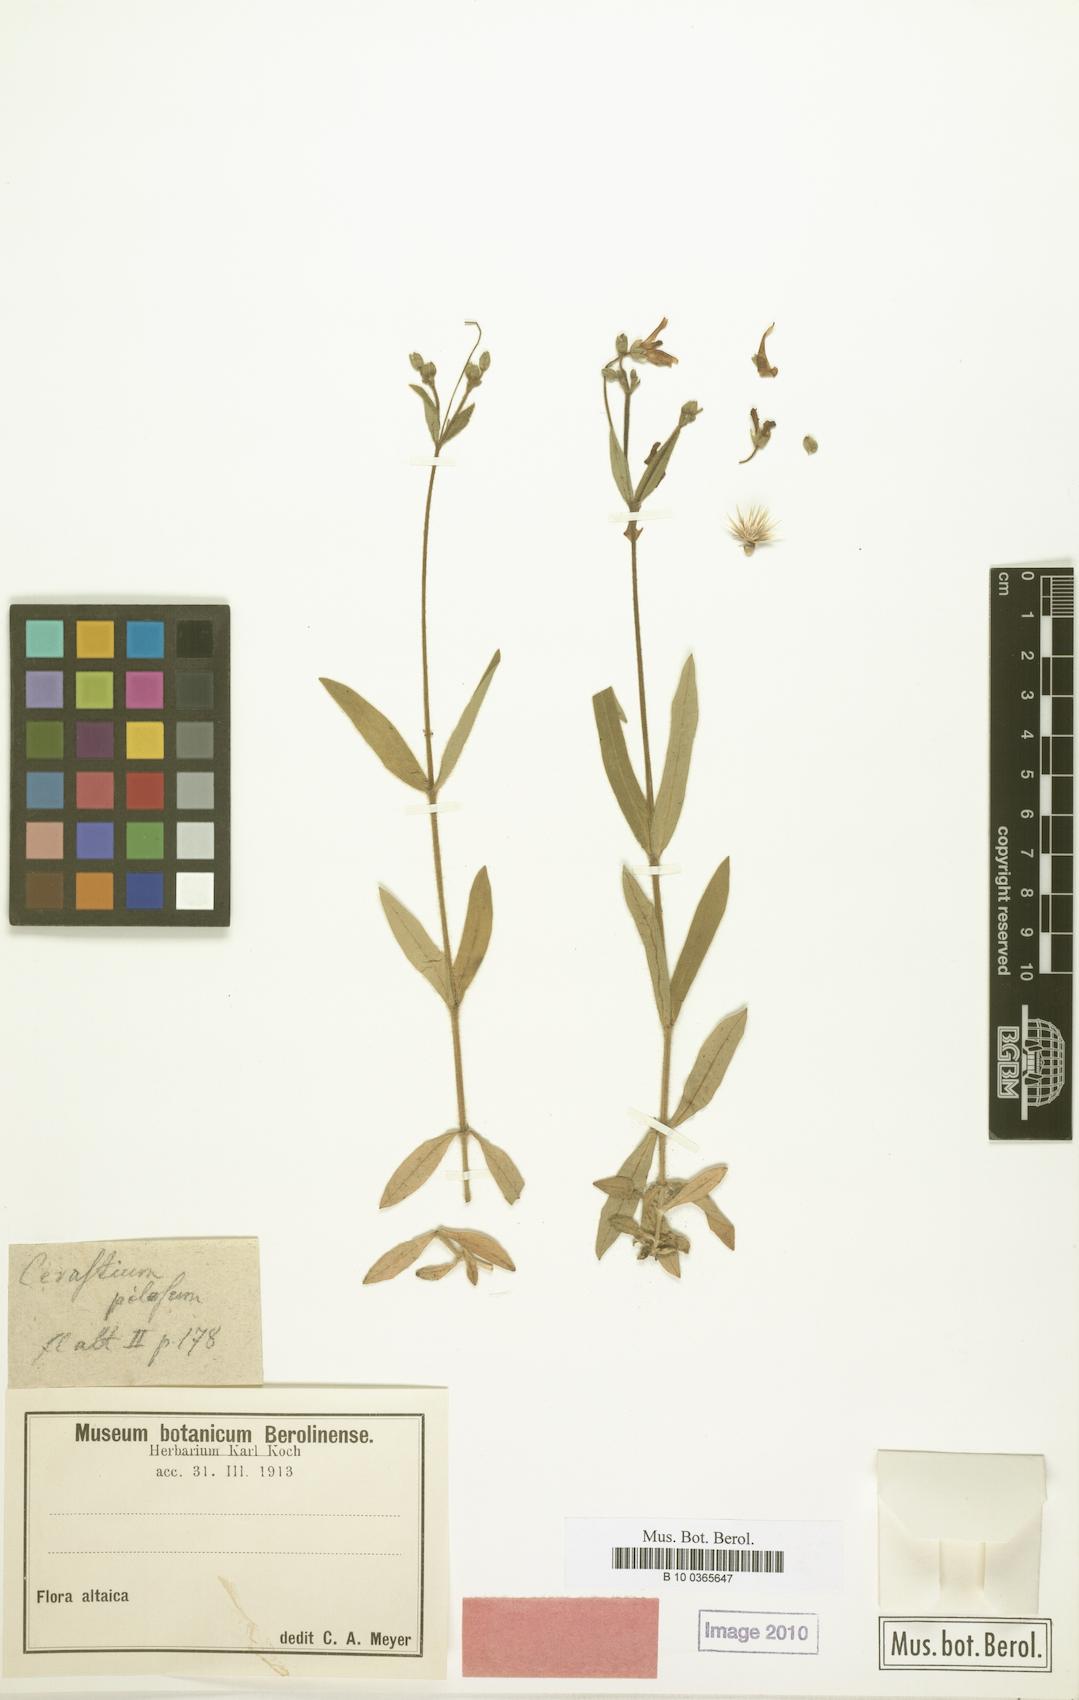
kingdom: Plantae
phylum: Tracheophyta
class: Magnoliopsida
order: Caryophyllales
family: Caryophyllaceae
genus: Cerastium
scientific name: Cerastium pauciflorum
